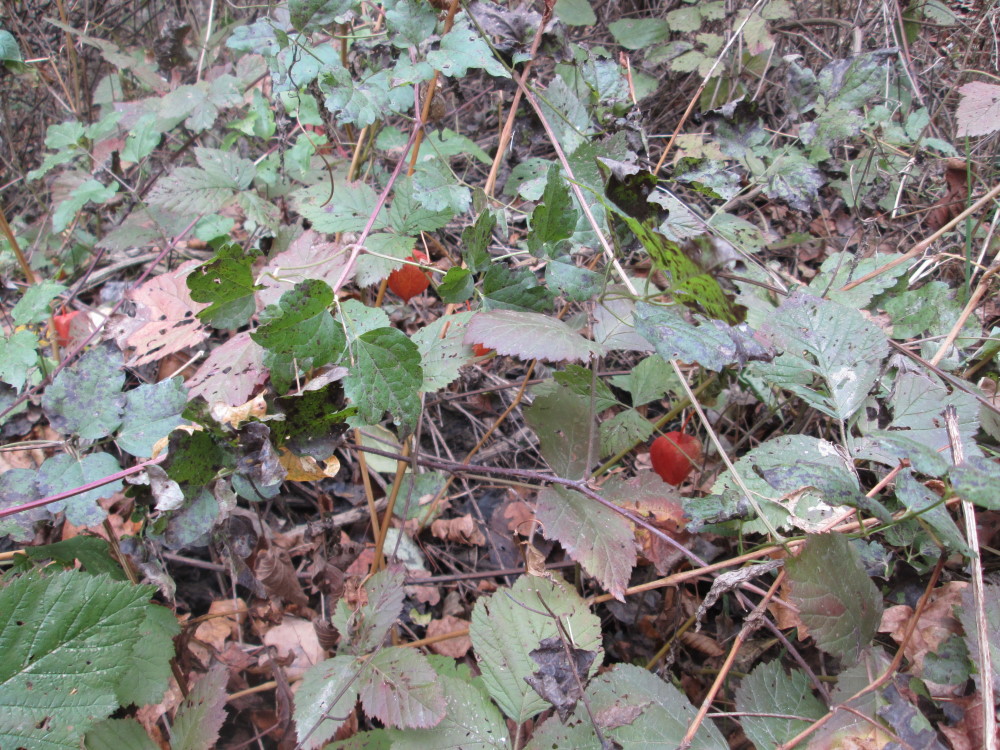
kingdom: Plantae
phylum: Tracheophyta
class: Magnoliopsida
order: Solanales
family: Solanaceae
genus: Alkekengi
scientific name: Alkekengi officinarum
